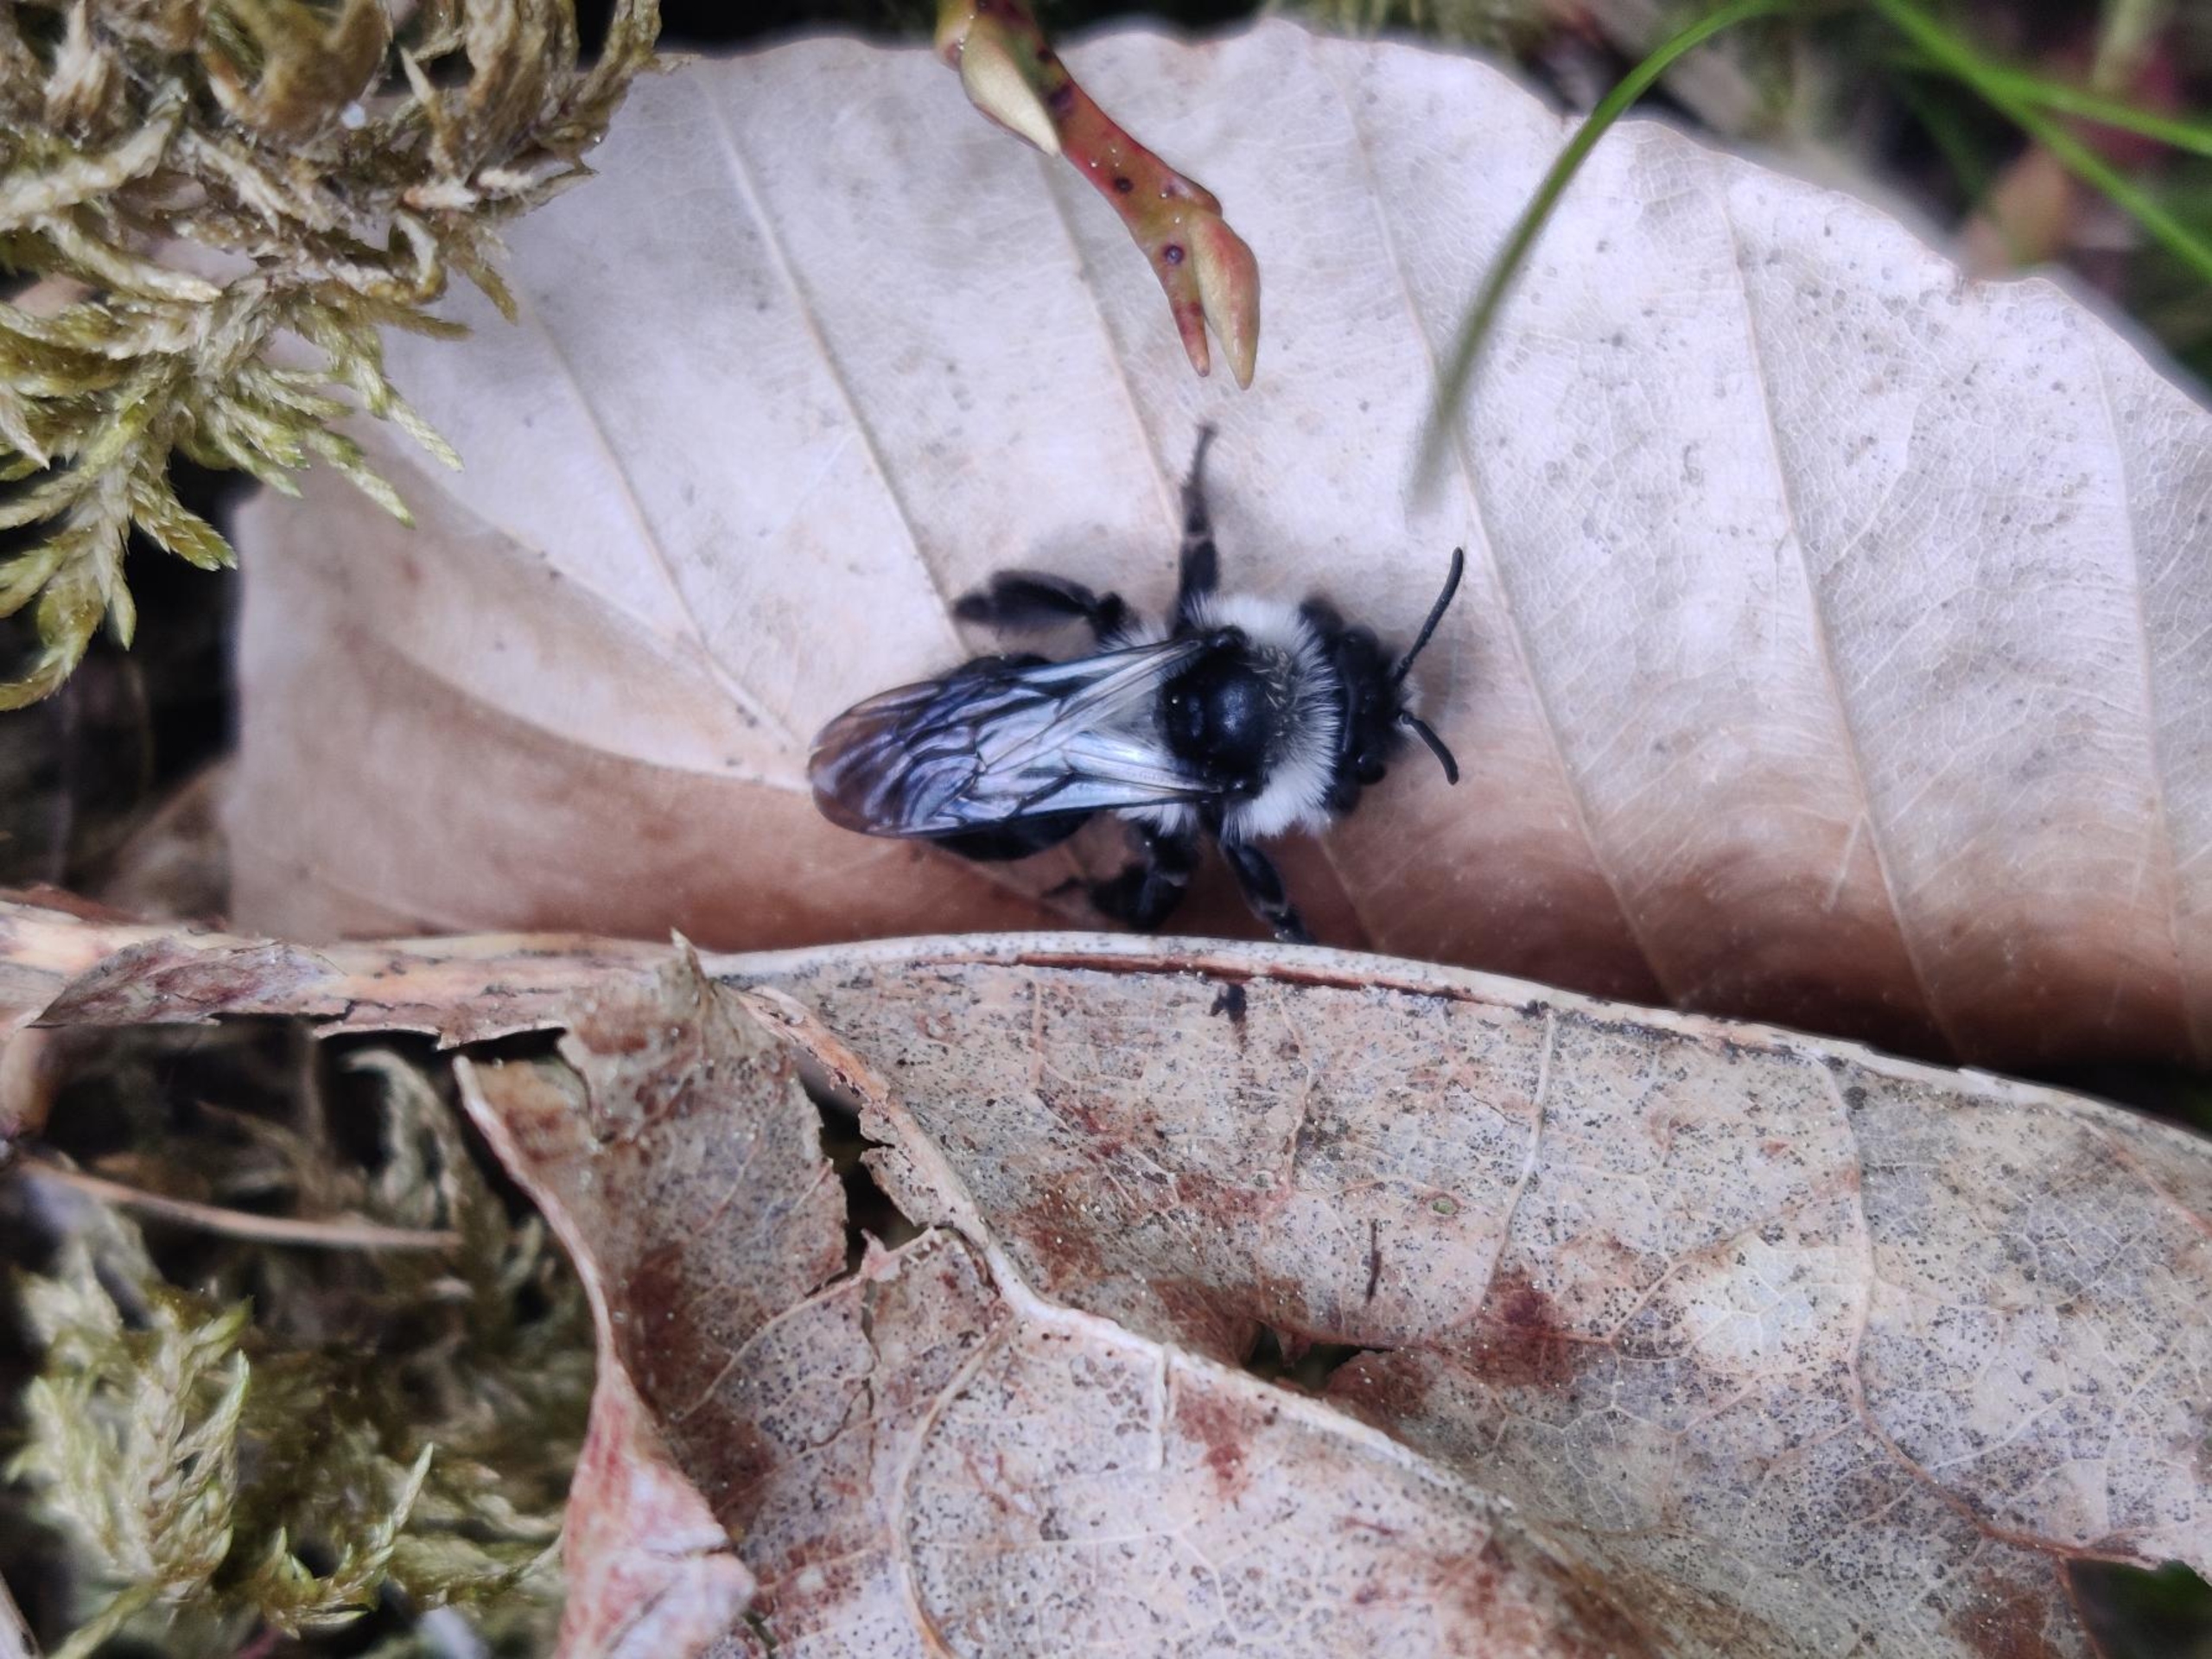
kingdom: Animalia
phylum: Arthropoda
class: Insecta
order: Hymenoptera
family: Andrenidae
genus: Andrena
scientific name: Andrena cineraria
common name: Sorthvid jordbi
